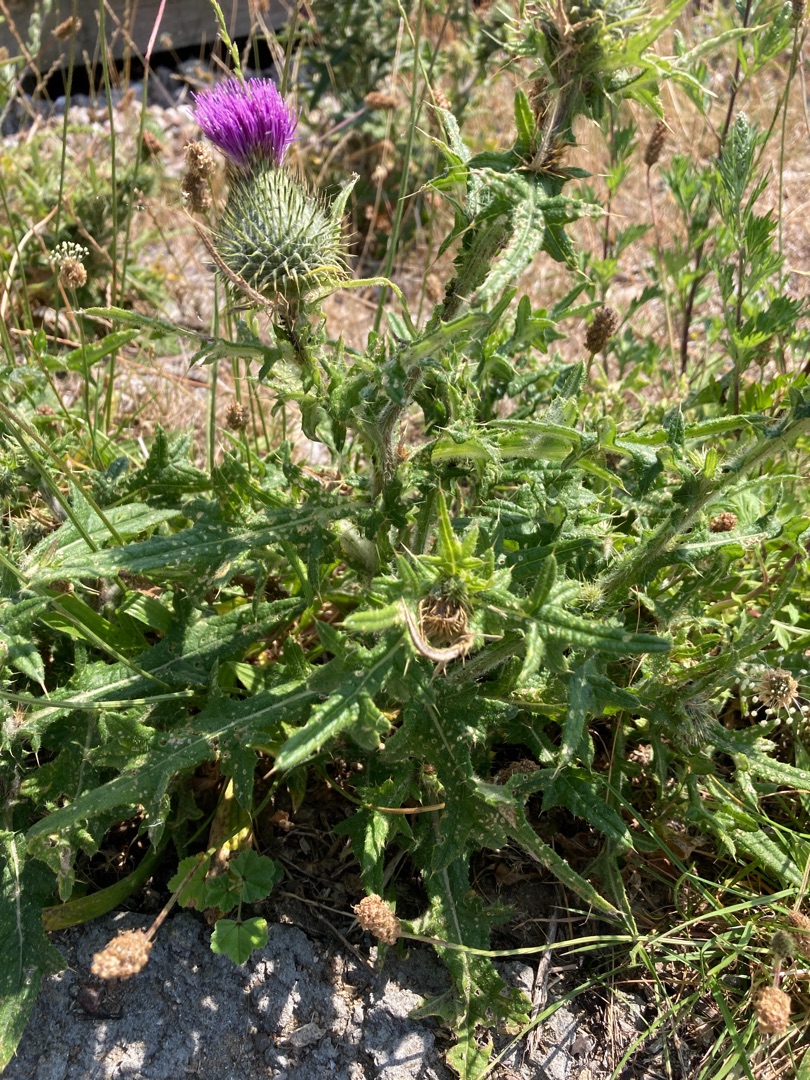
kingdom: Plantae
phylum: Tracheophyta
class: Magnoliopsida
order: Asterales
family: Asteraceae
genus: Cirsium
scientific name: Cirsium vulgare
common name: Horse-tidsel
